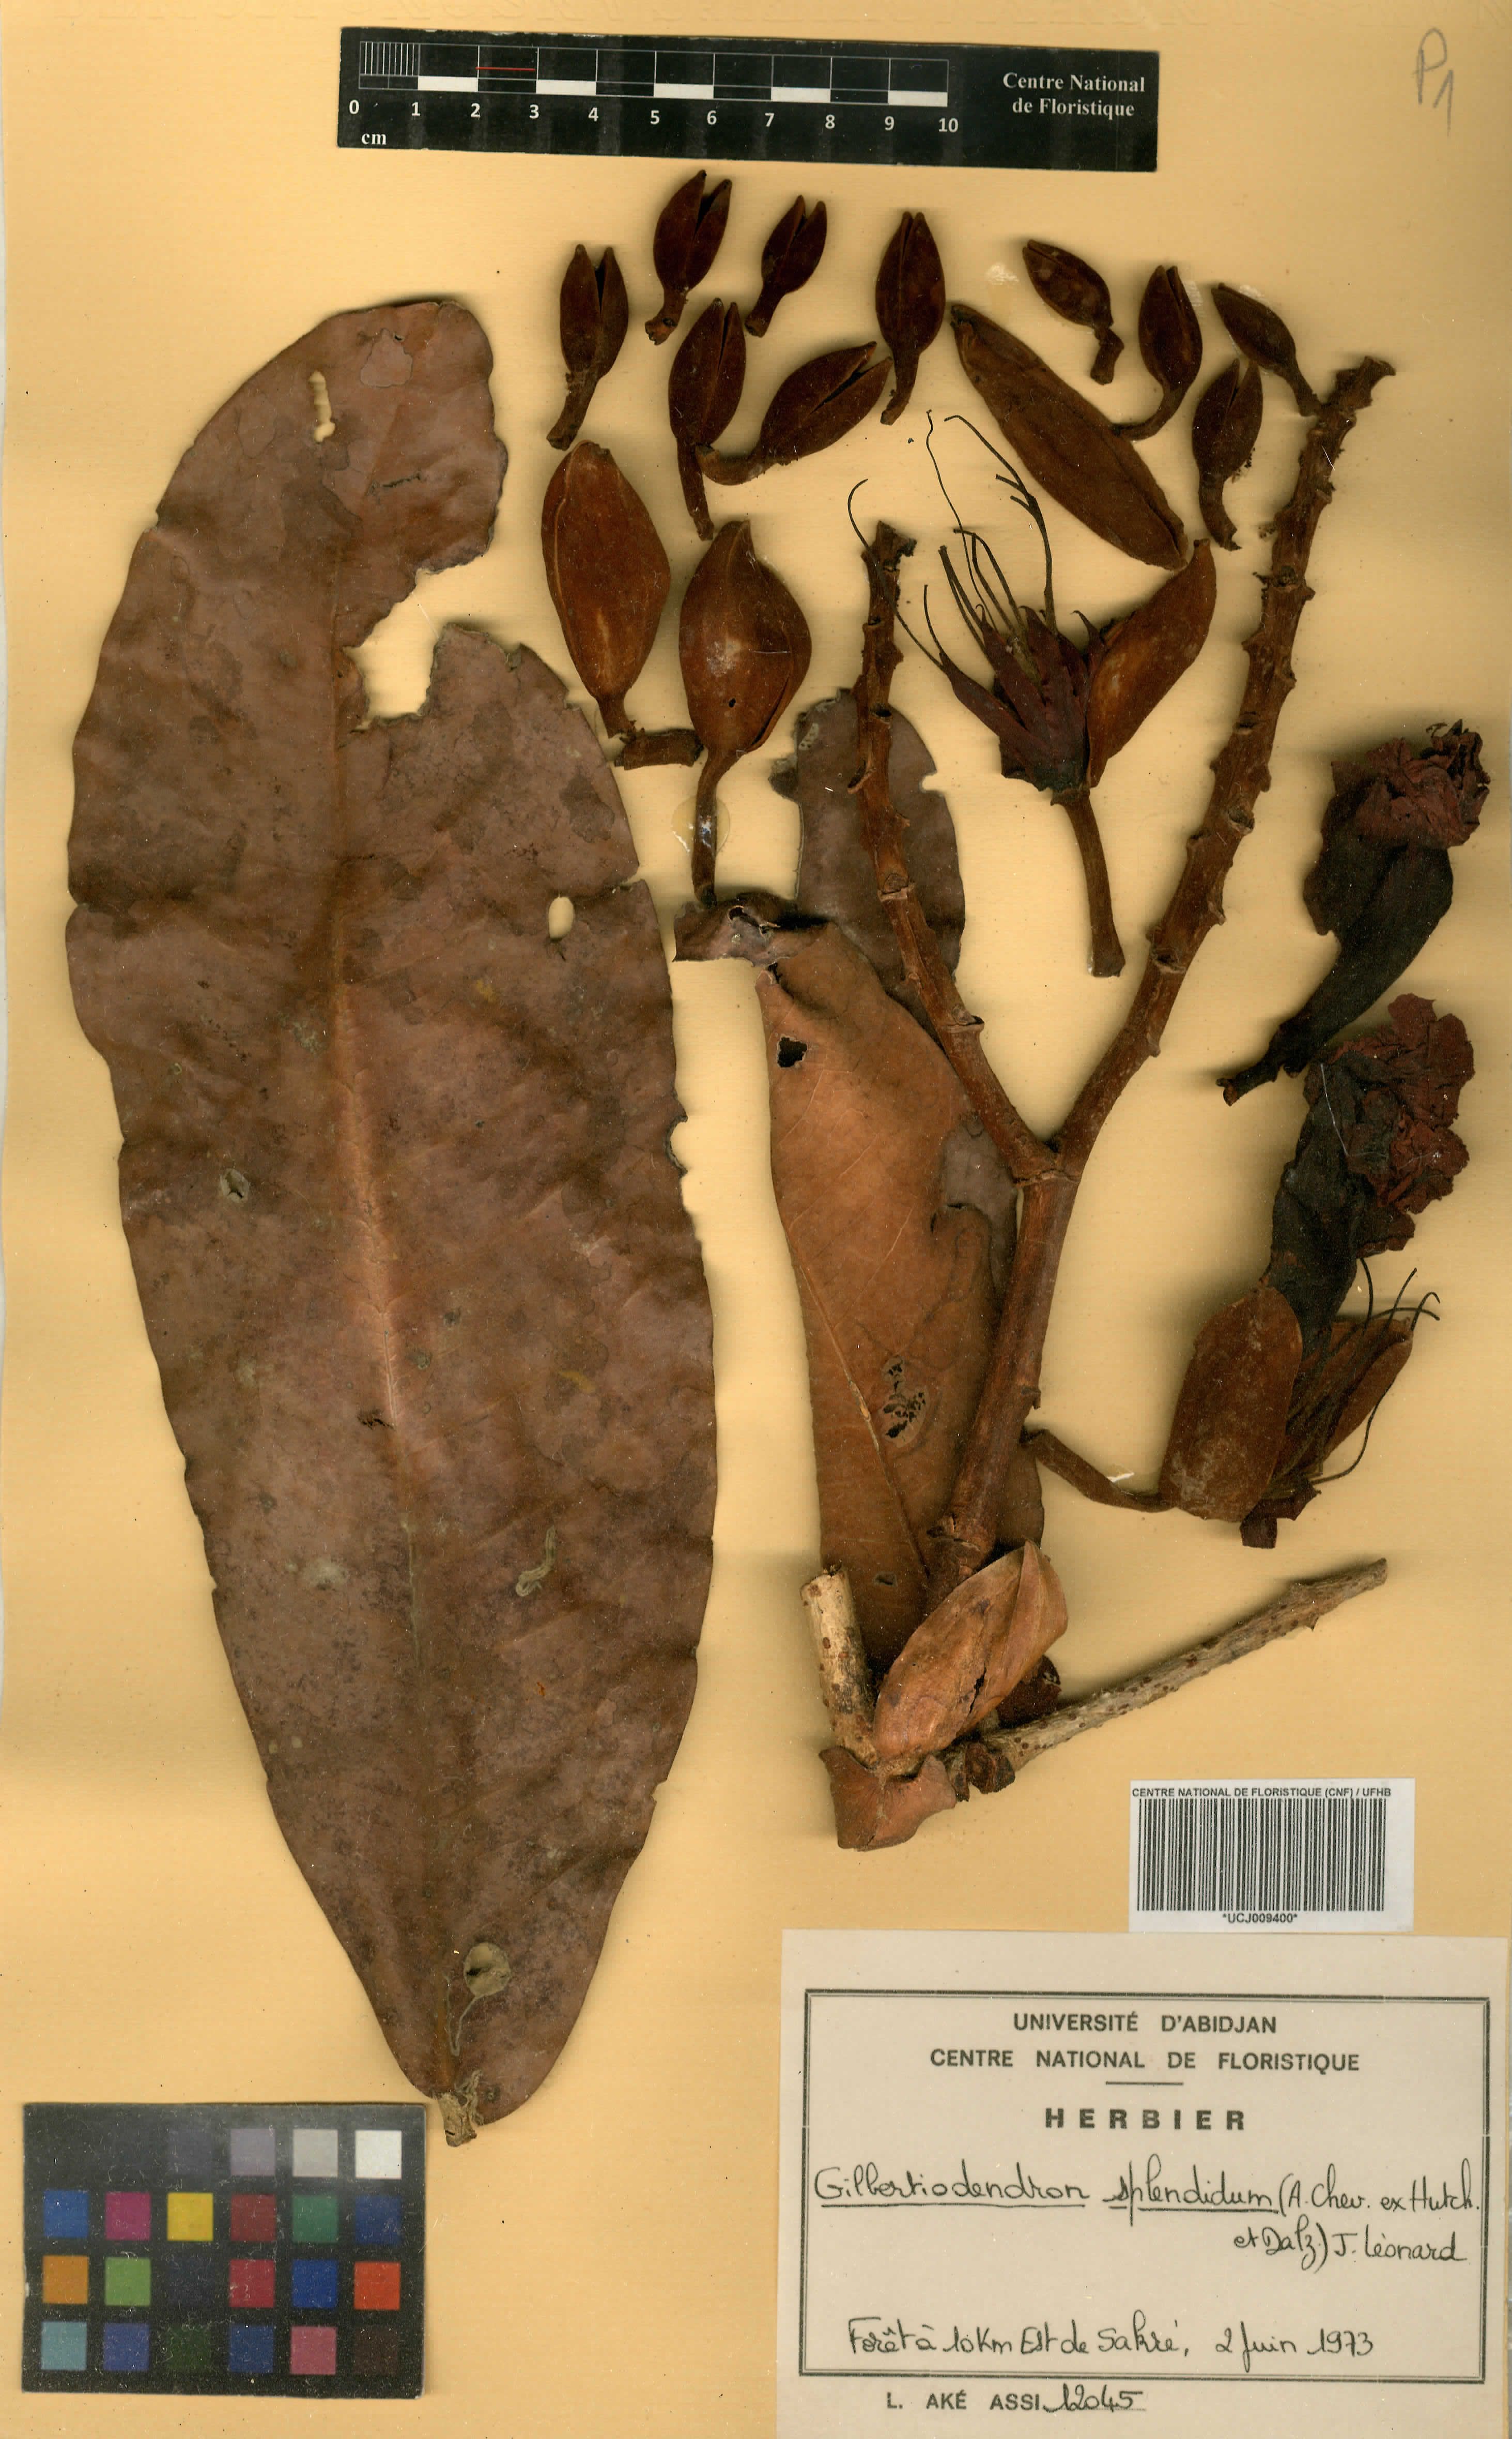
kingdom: Plantae
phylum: Tracheophyta
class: Magnoliopsida
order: Fabales
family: Fabaceae
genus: Gilbertiodendron
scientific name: Gilbertiodendron splendidum
